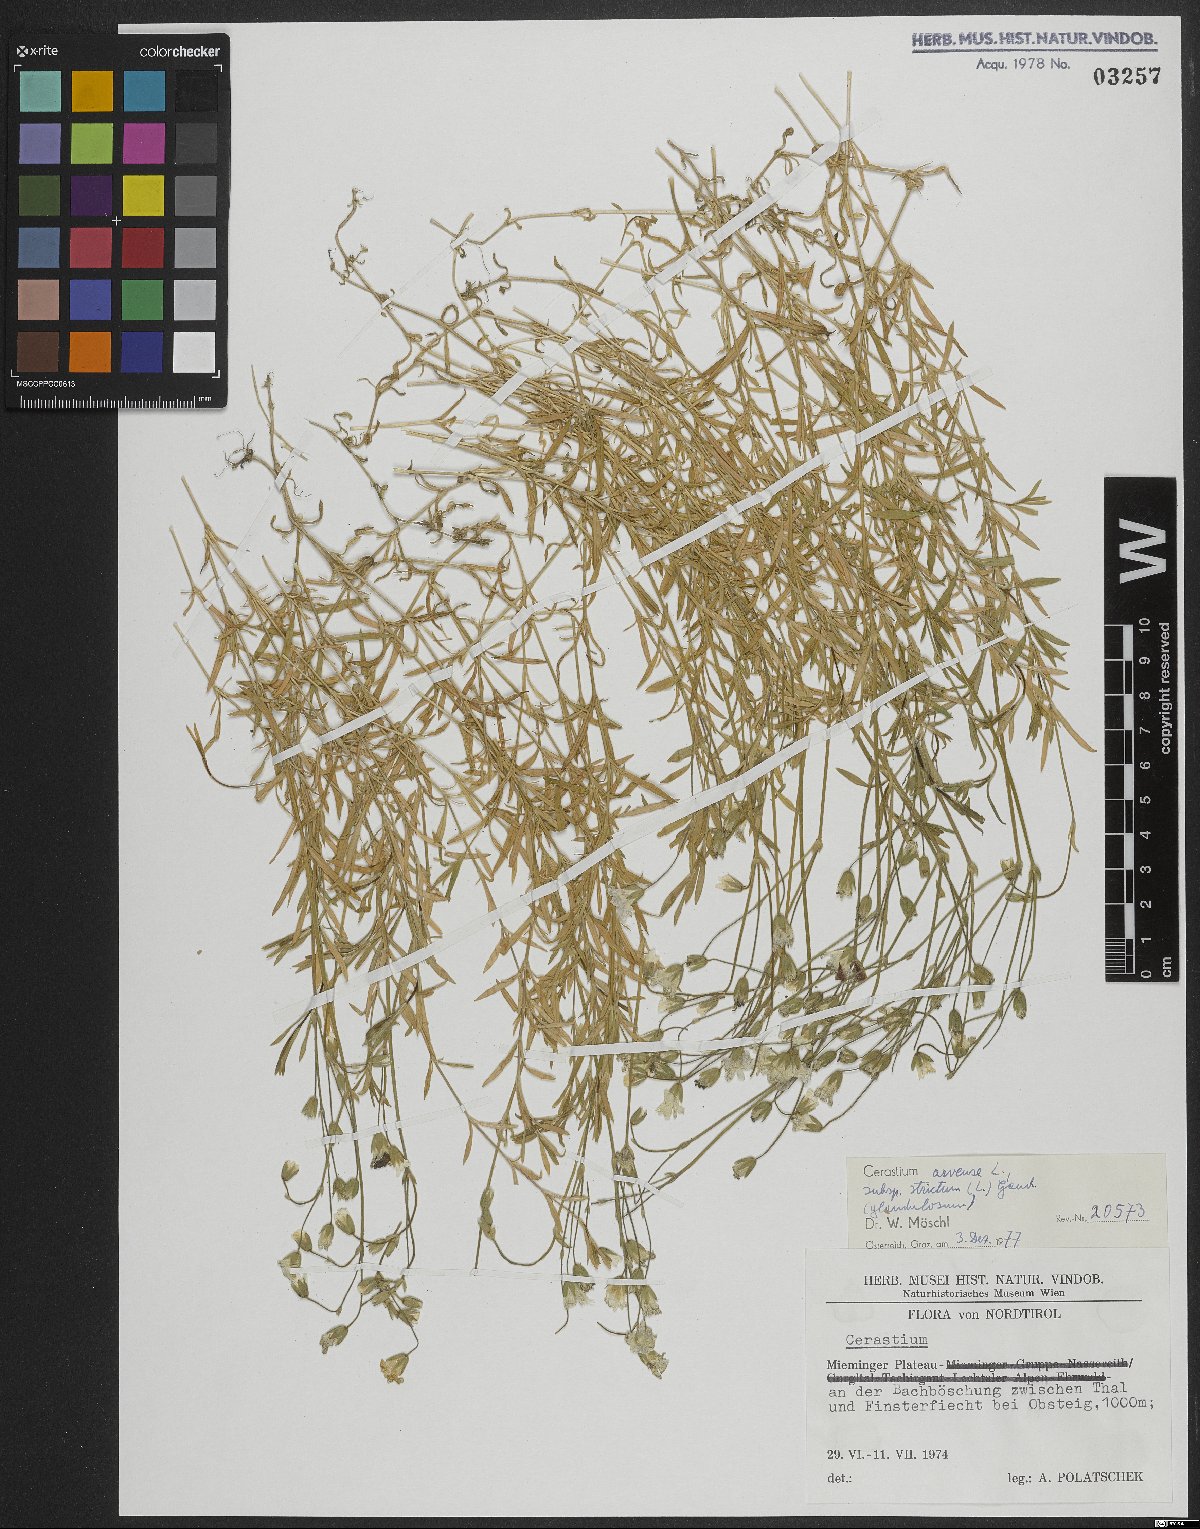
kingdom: Plantae
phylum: Tracheophyta
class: Magnoliopsida
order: Caryophyllales
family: Caryophyllaceae
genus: Cerastium
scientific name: Cerastium elongatum
